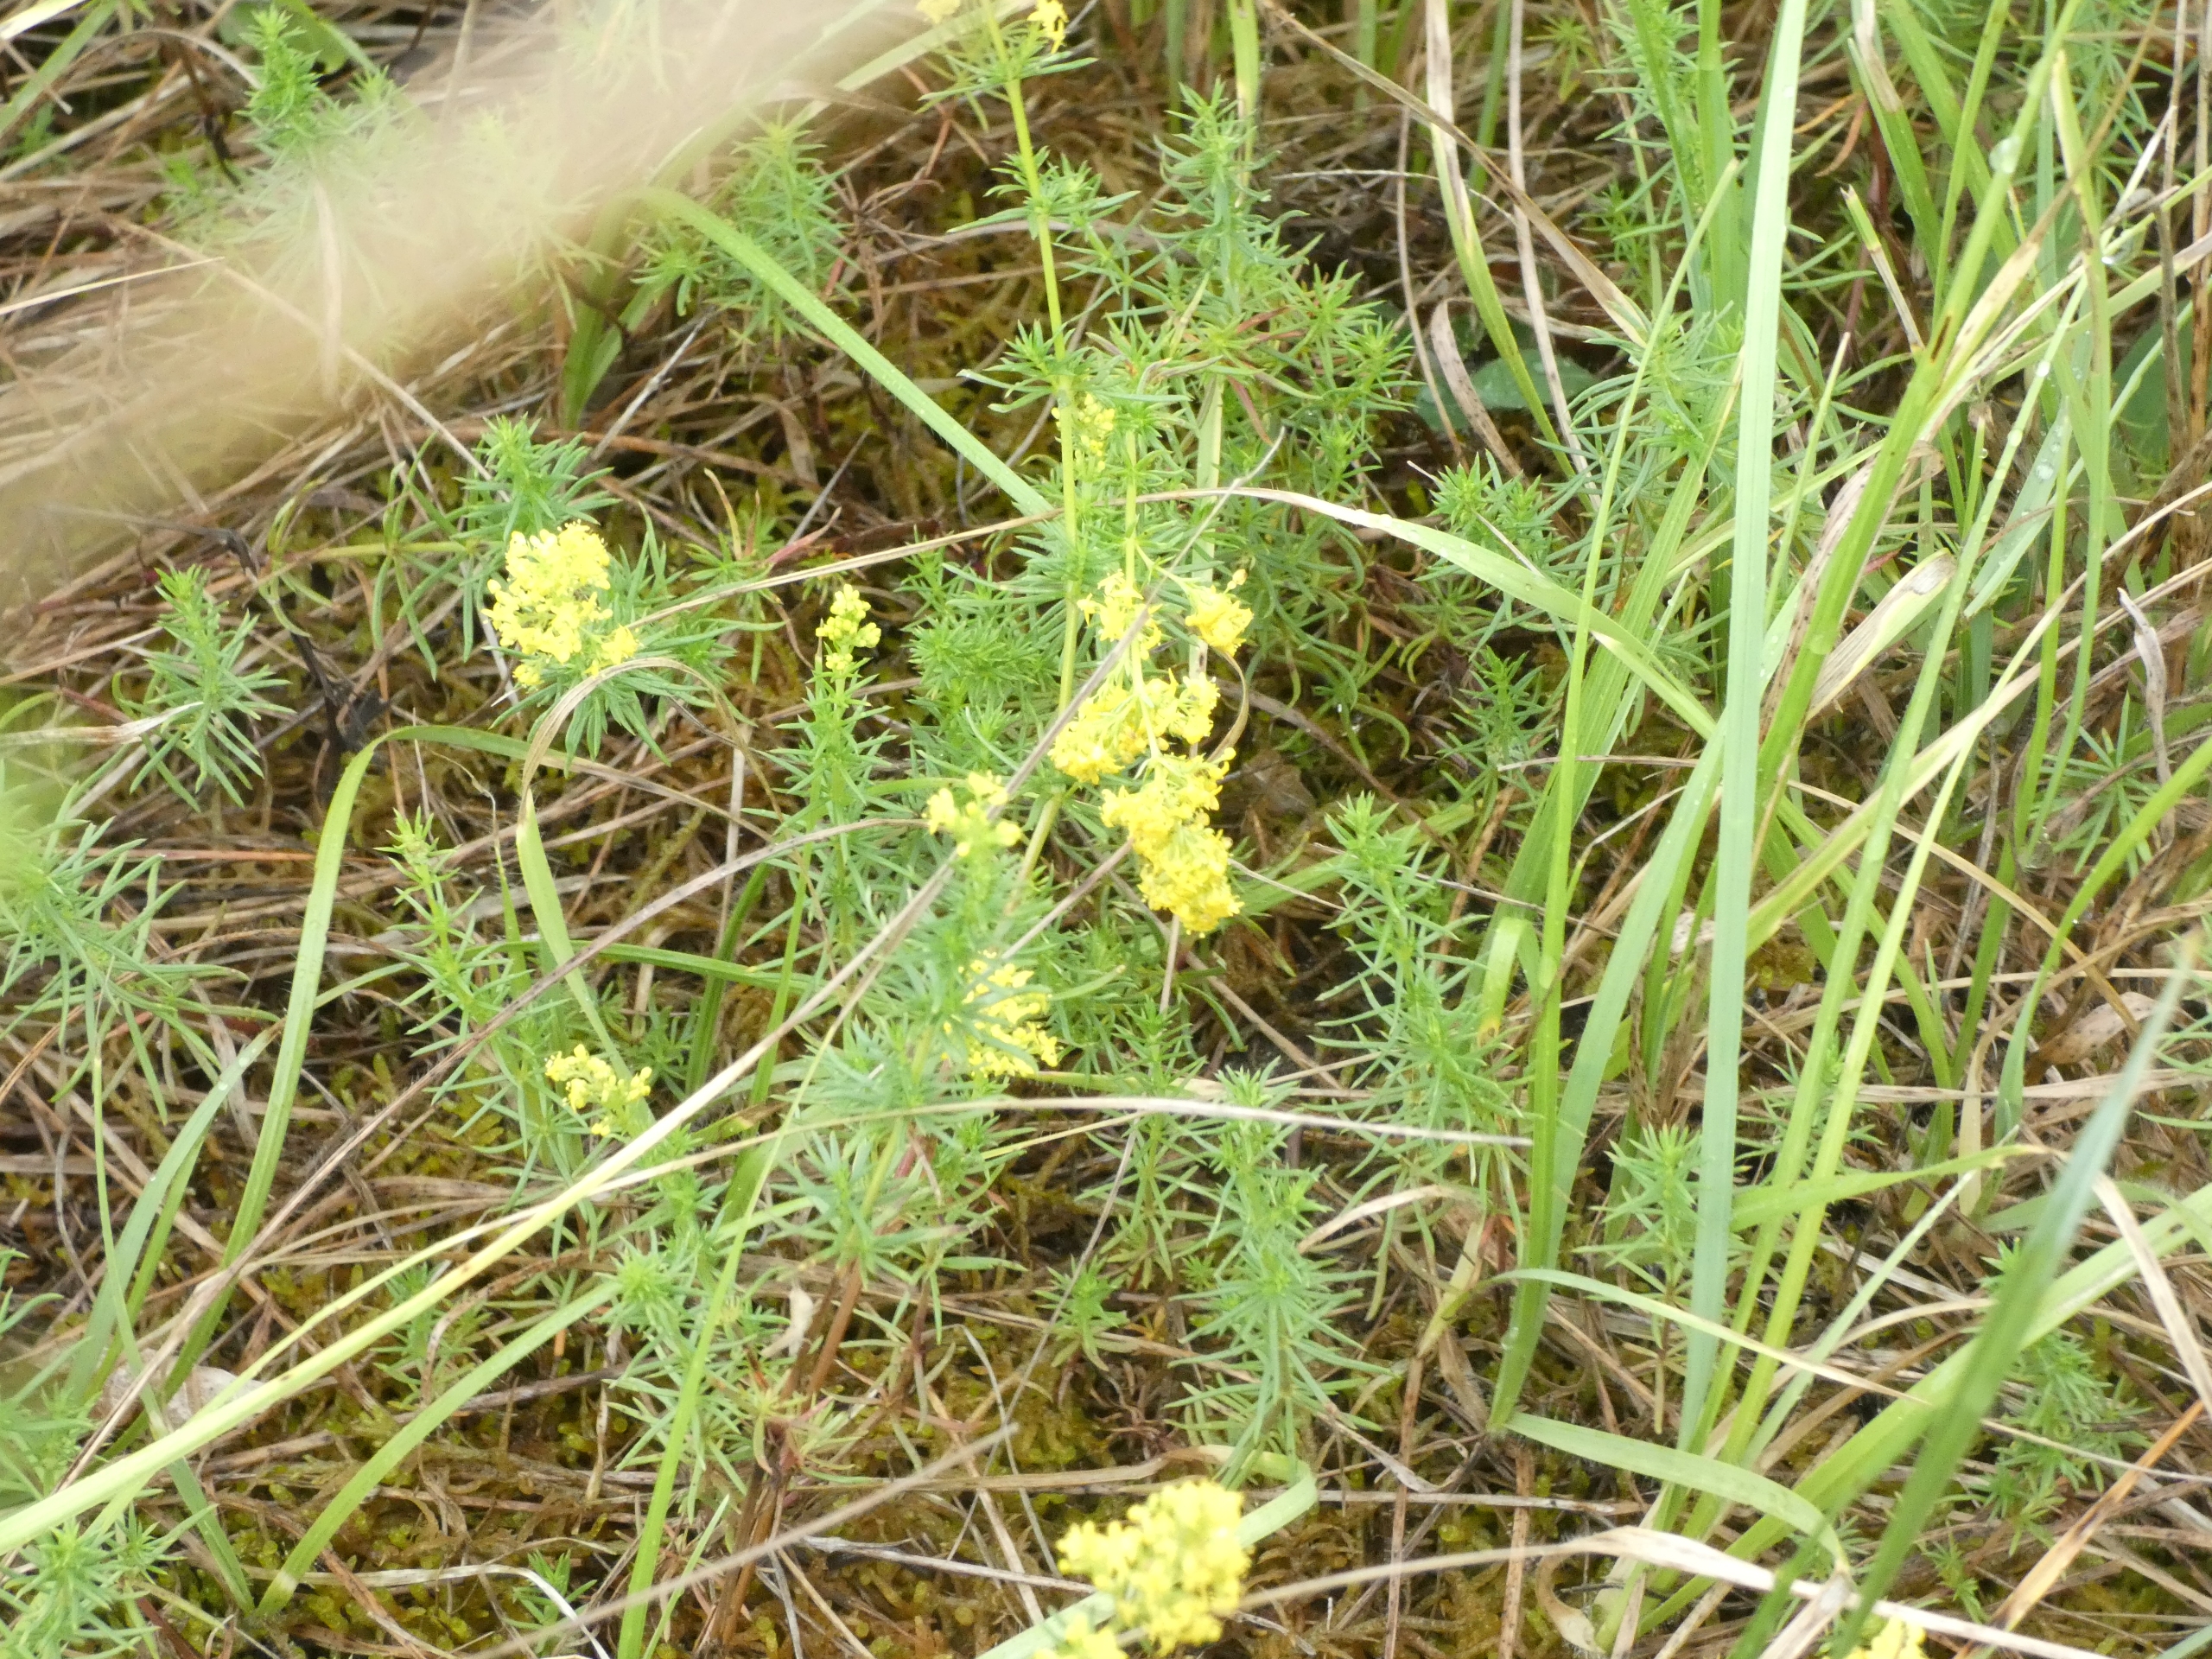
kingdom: Plantae
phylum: Tracheophyta
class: Magnoliopsida
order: Gentianales
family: Rubiaceae
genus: Galium
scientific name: Galium verum
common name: Gul snerre
